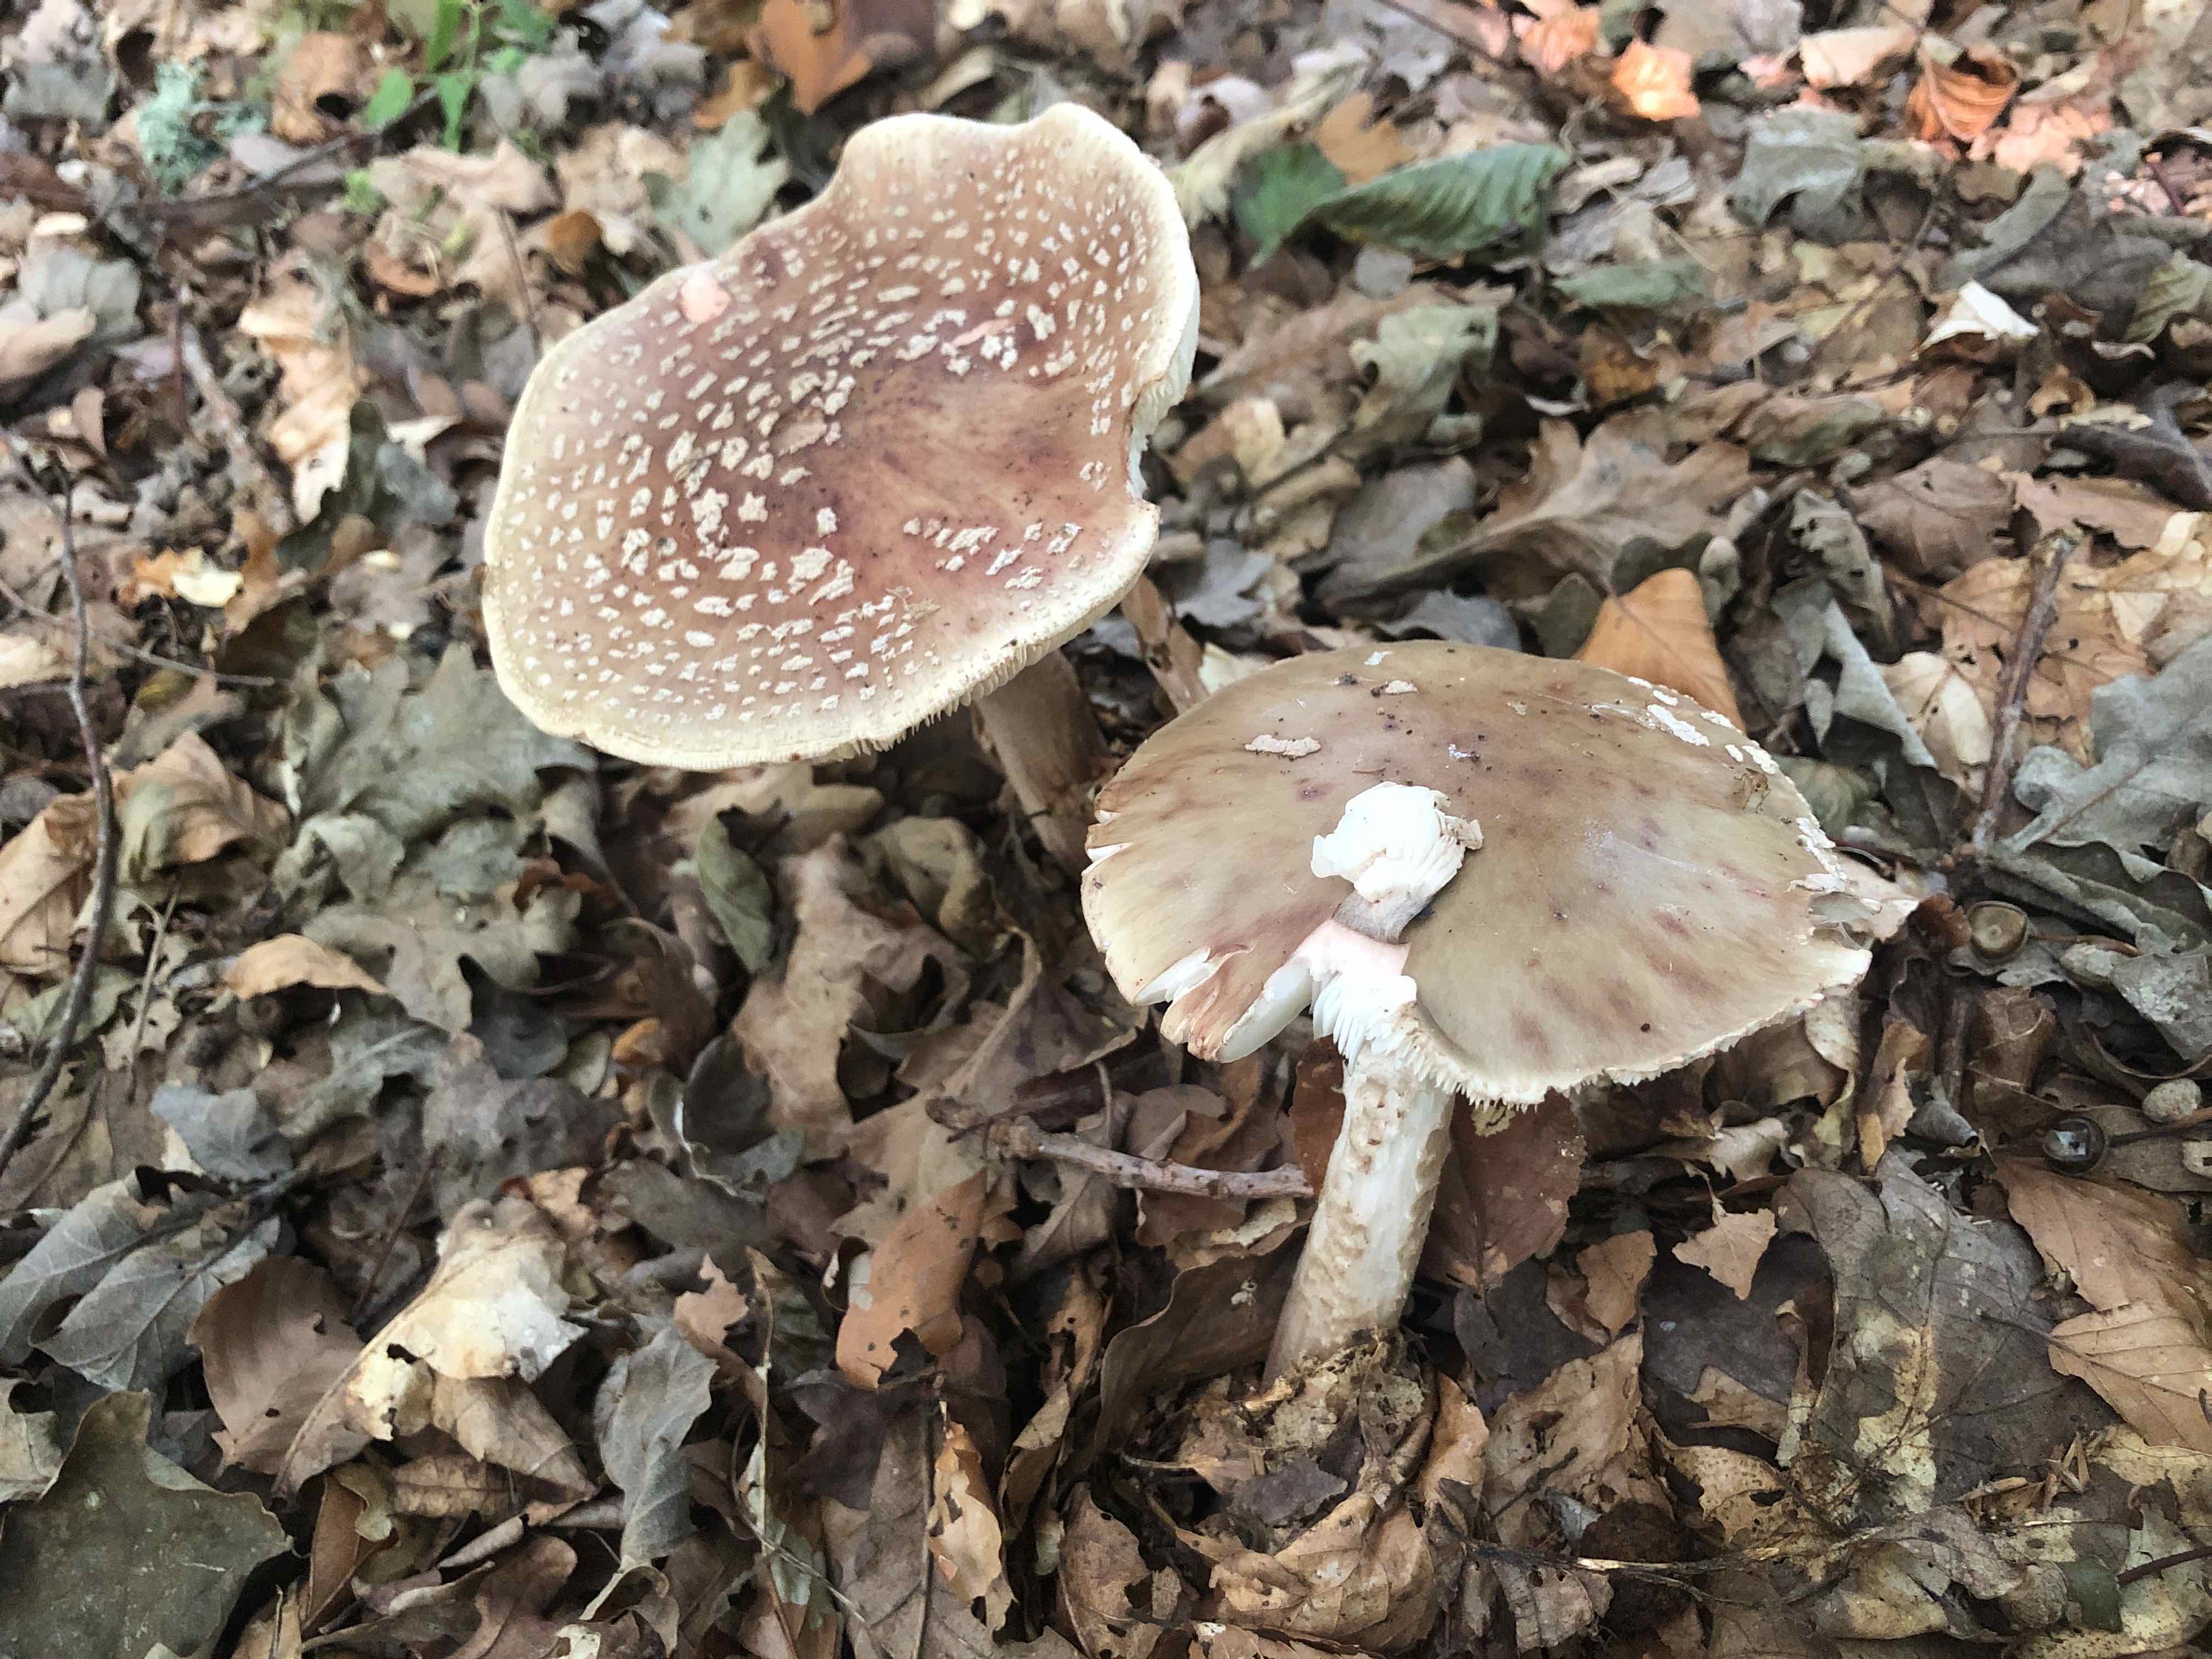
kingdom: Fungi
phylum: Basidiomycota
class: Agaricomycetes
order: Agaricales
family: Amanitaceae
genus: Amanita
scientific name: Amanita rubescens
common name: rødmende fluesvamp
